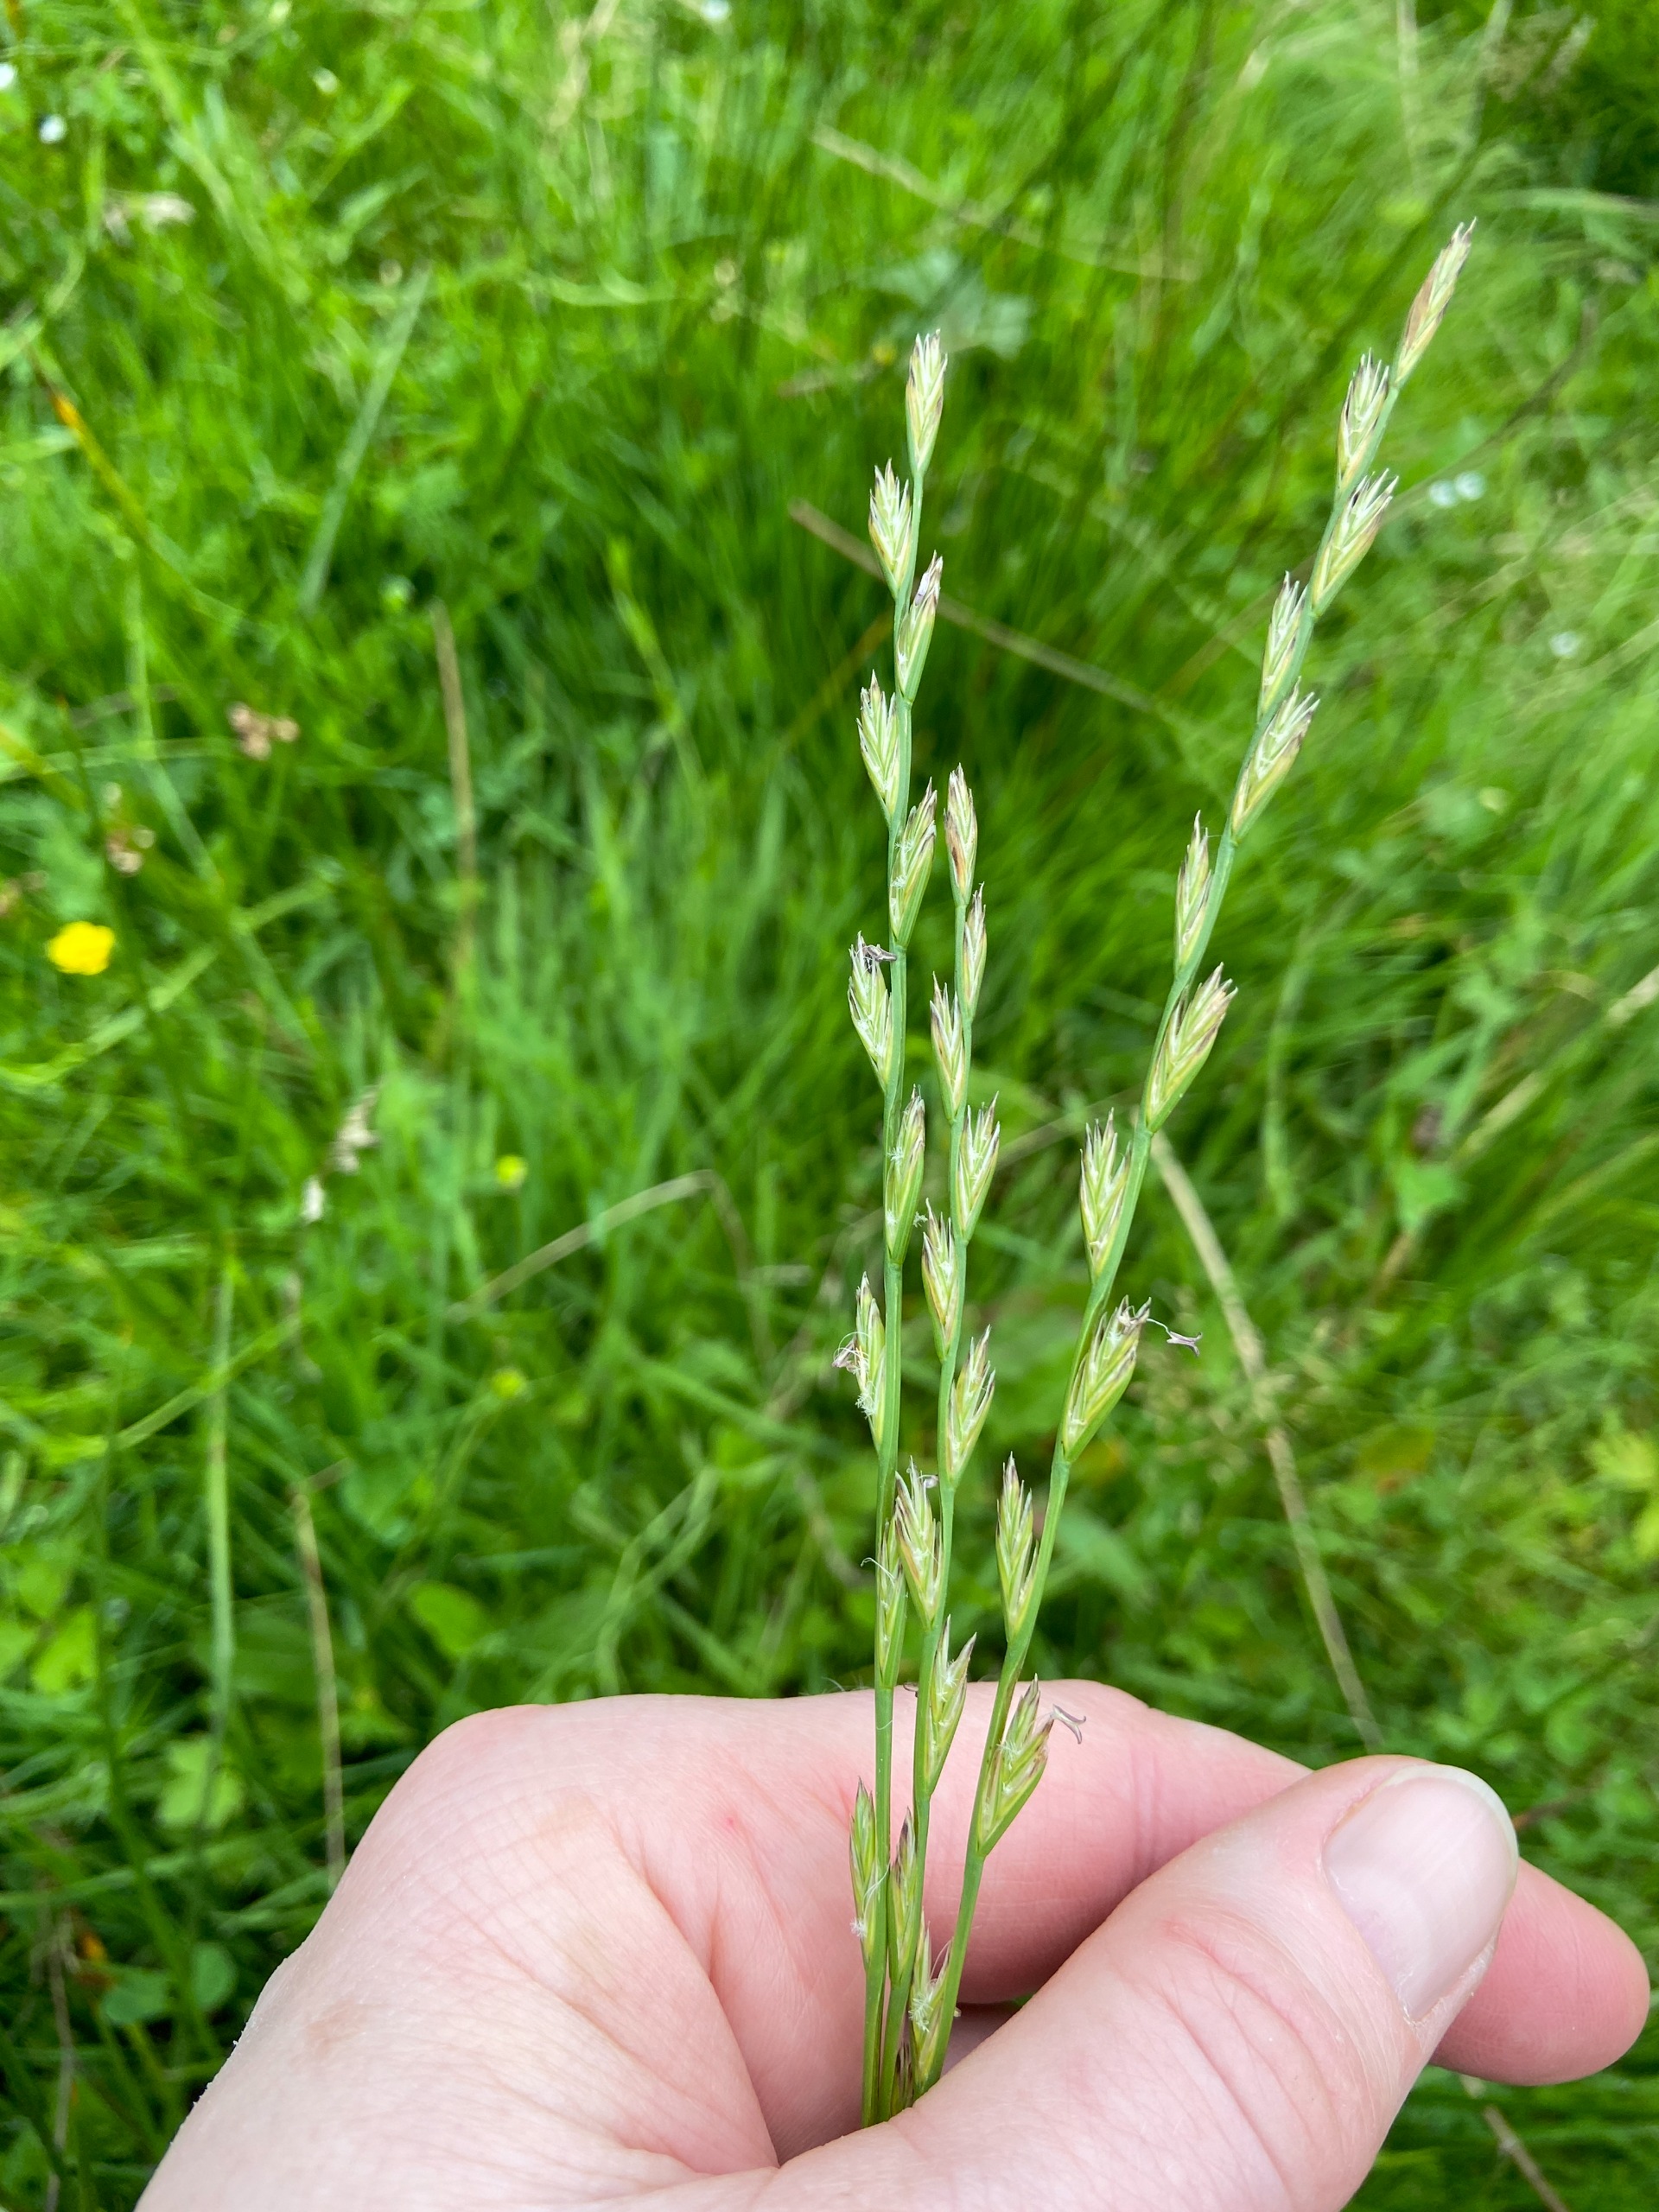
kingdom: Plantae
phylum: Tracheophyta
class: Liliopsida
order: Poales
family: Poaceae
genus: Lolium
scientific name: Lolium perenne
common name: Almindelig rajgræs
